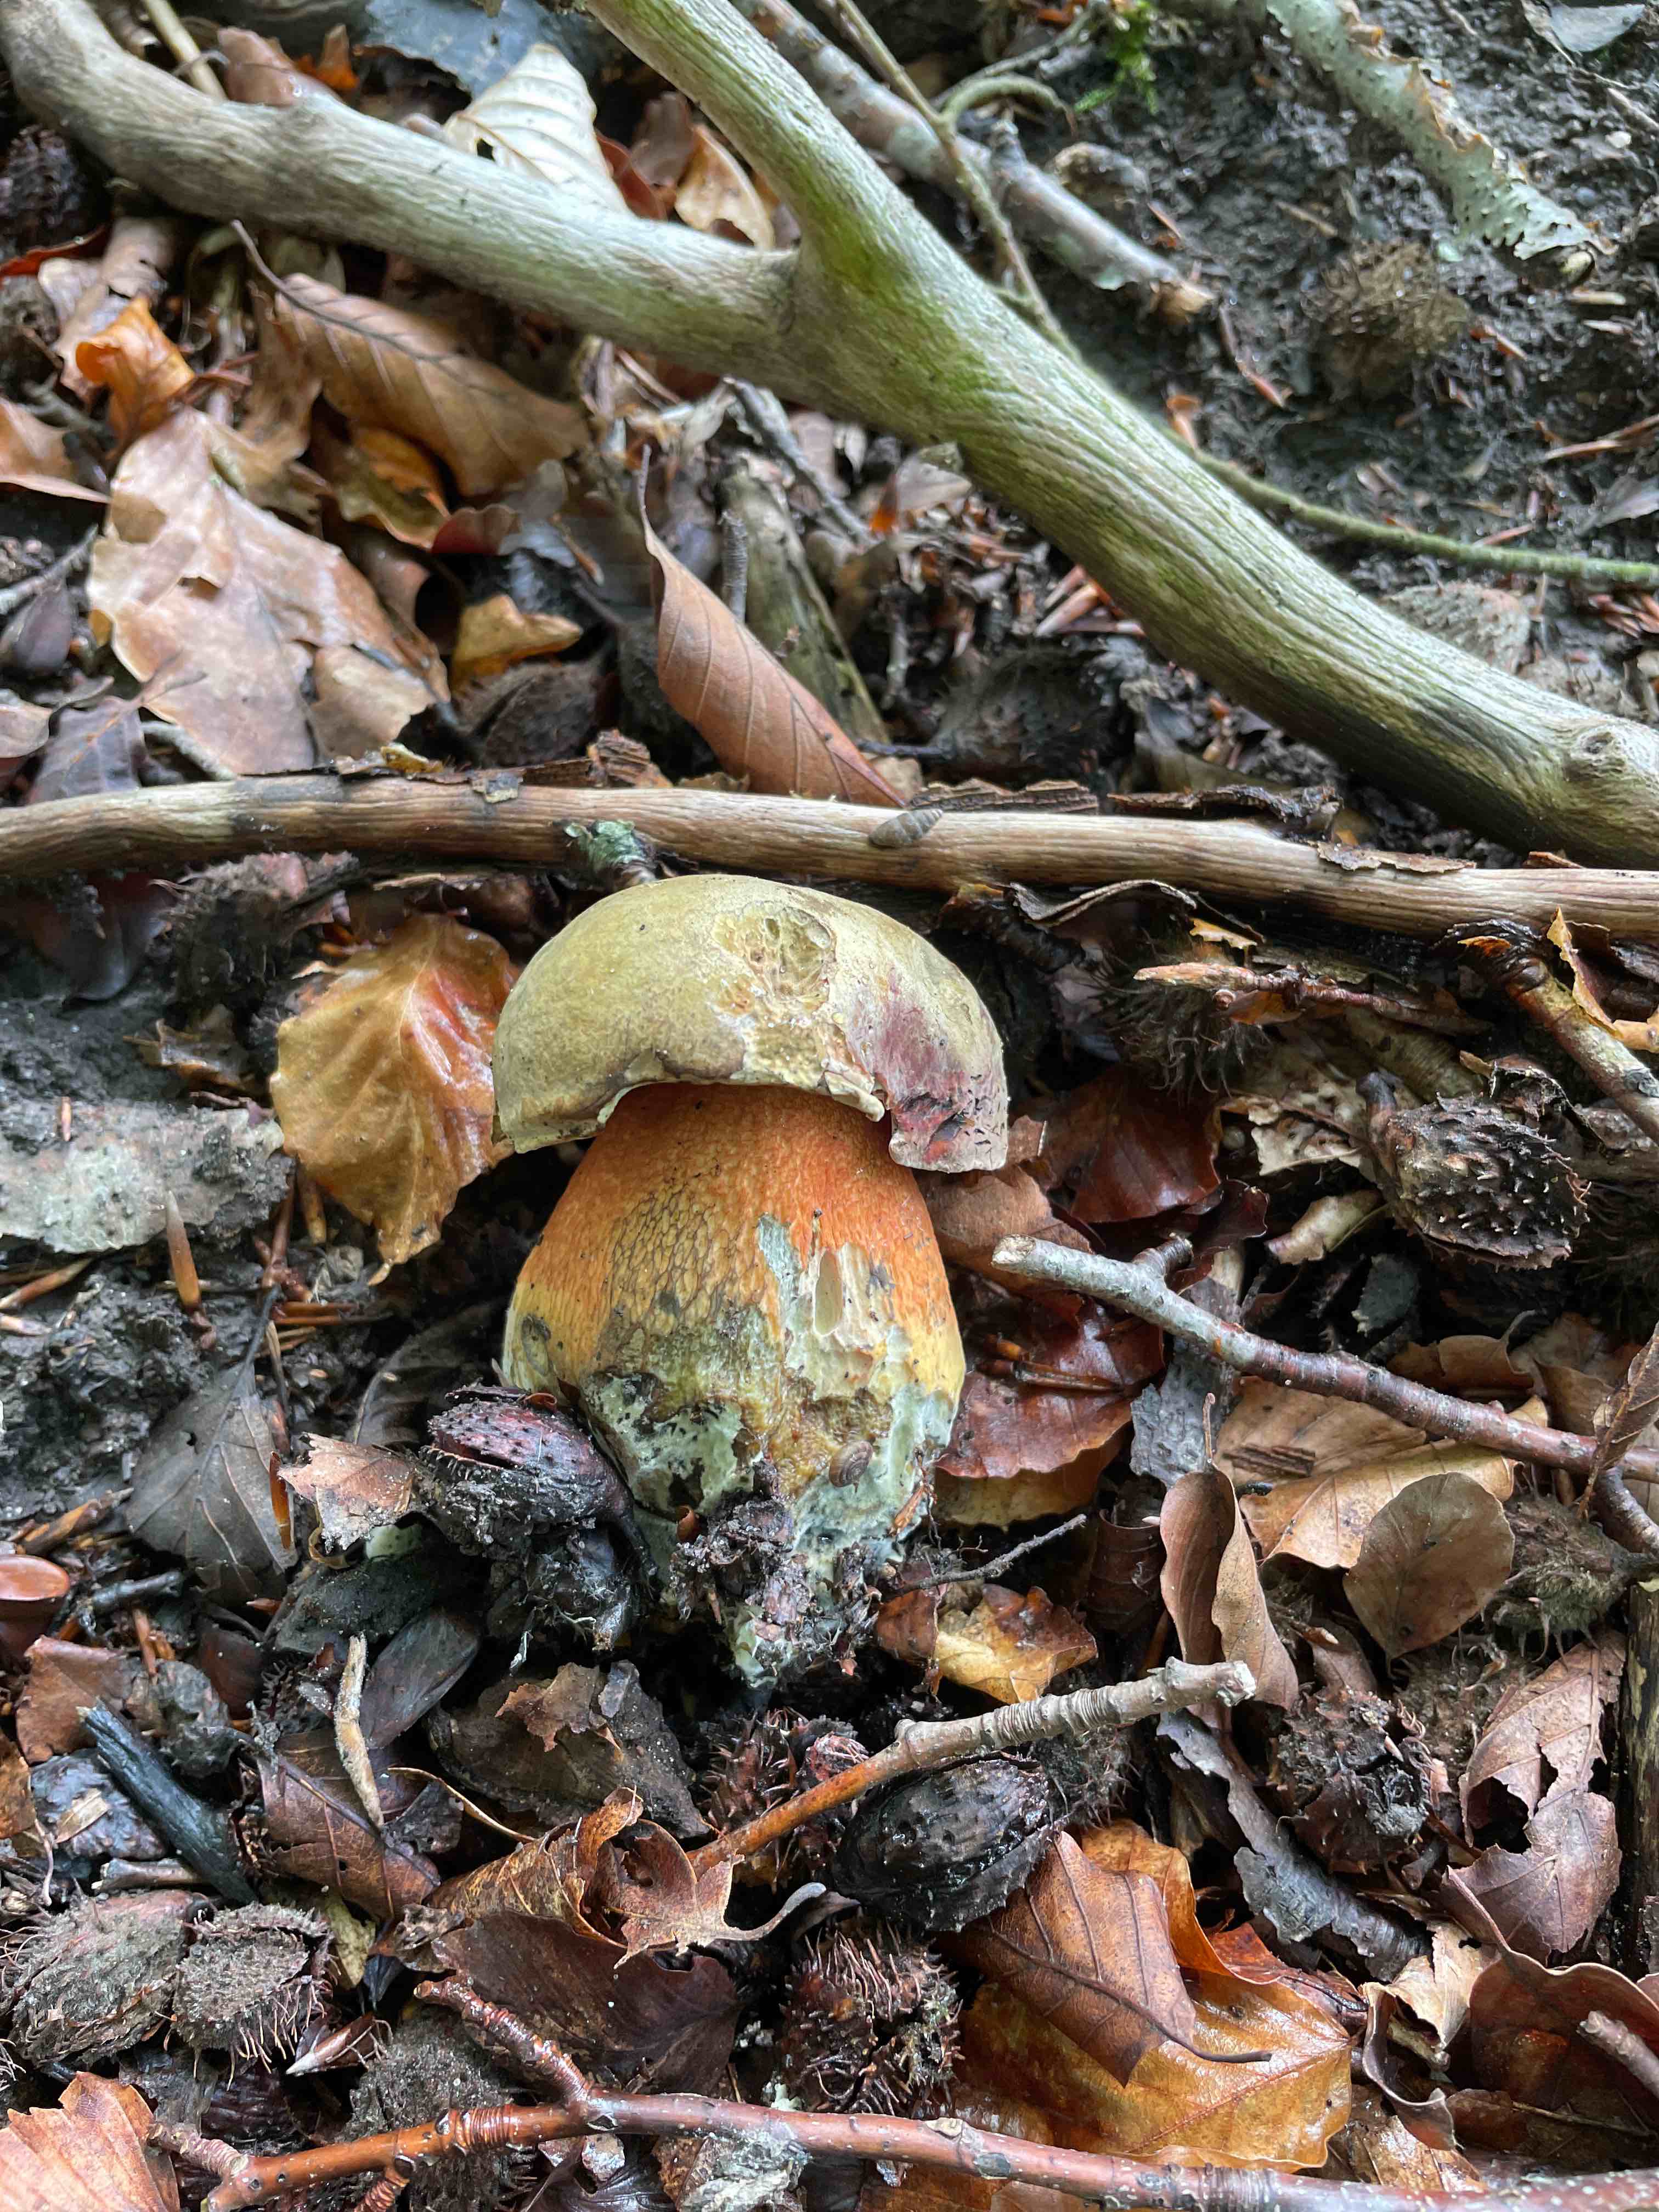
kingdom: Fungi
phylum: Basidiomycota
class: Agaricomycetes
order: Boletales
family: Boletaceae
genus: Suillellus
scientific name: Suillellus luridus
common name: netstokket indigorørhat
